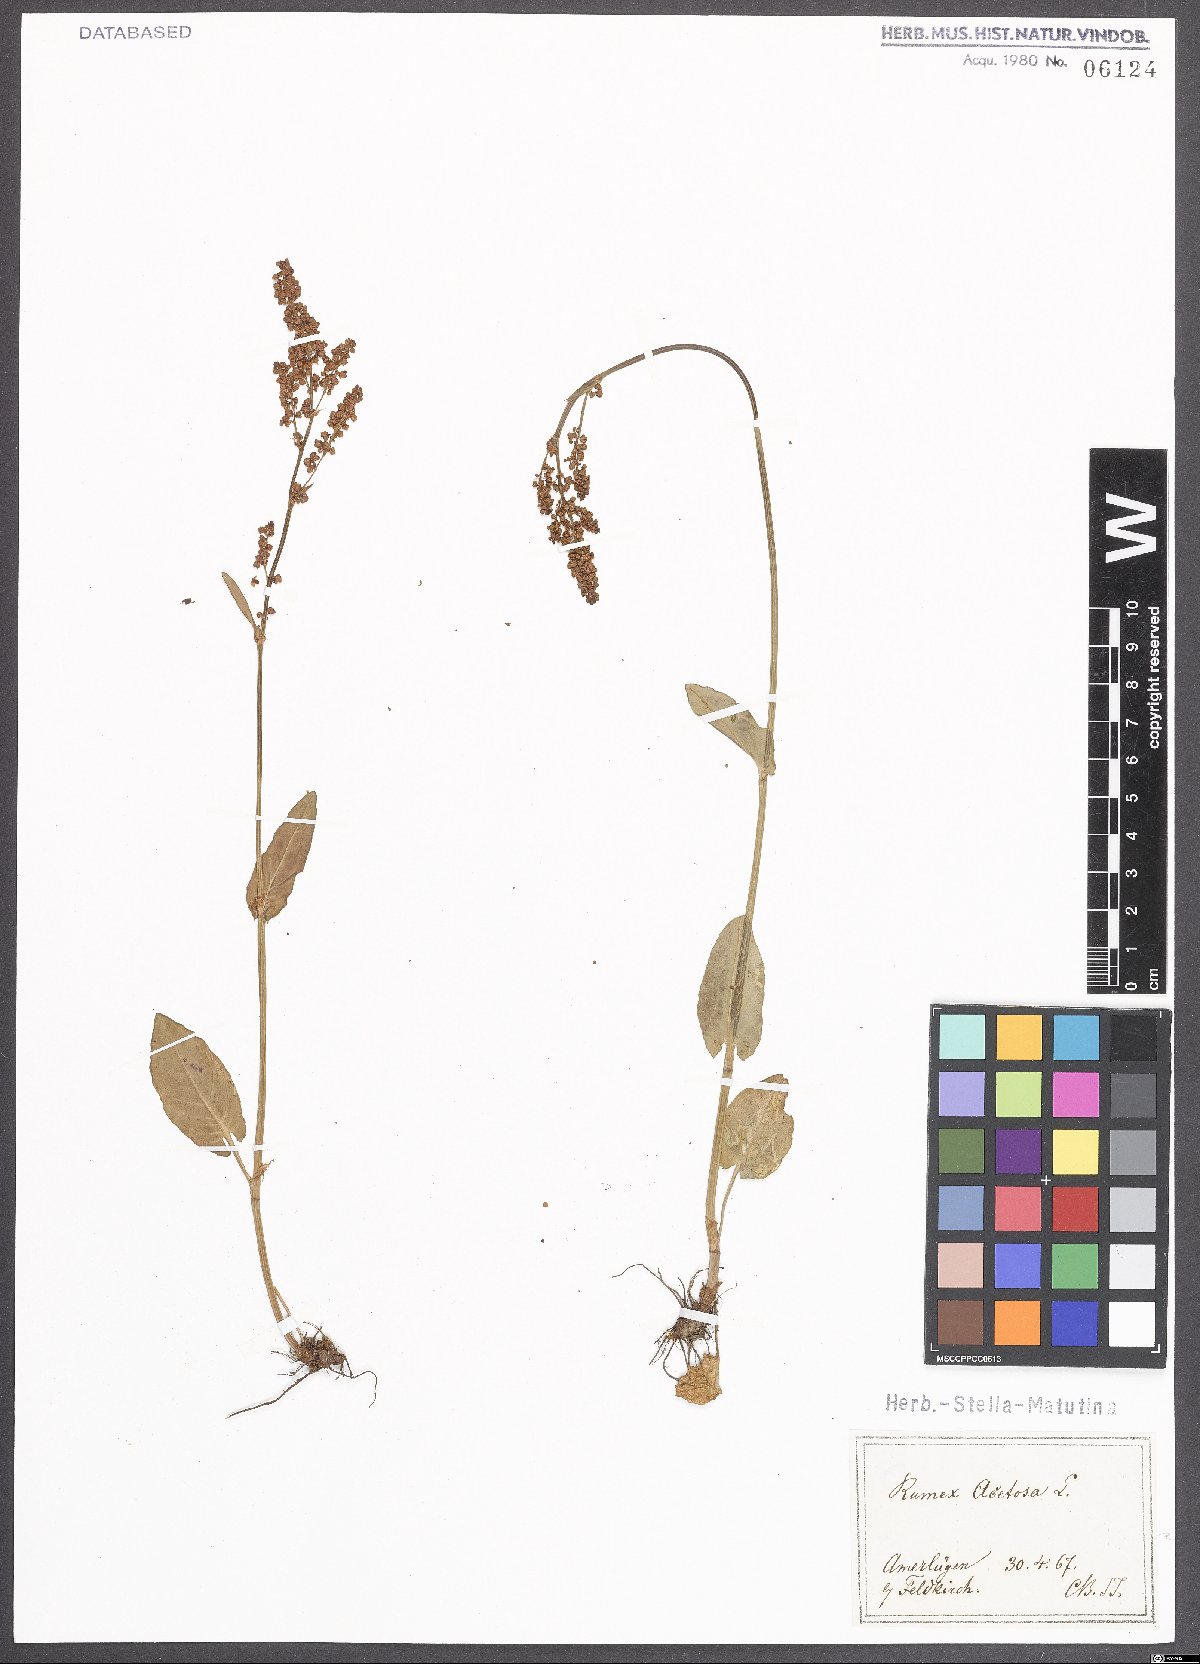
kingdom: Plantae
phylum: Tracheophyta
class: Magnoliopsida
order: Caryophyllales
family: Polygonaceae
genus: Rumex
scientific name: Rumex acetosa
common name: Garden sorrel
